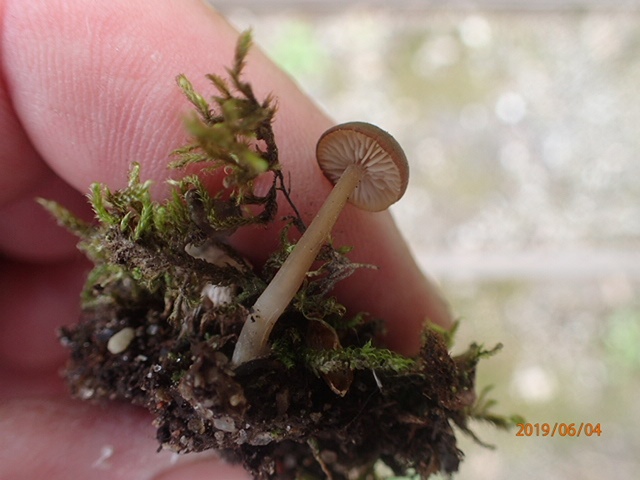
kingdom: Fungi
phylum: Basidiomycota
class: Agaricomycetes
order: Agaricales
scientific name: Agaricales
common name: champignonordenen
